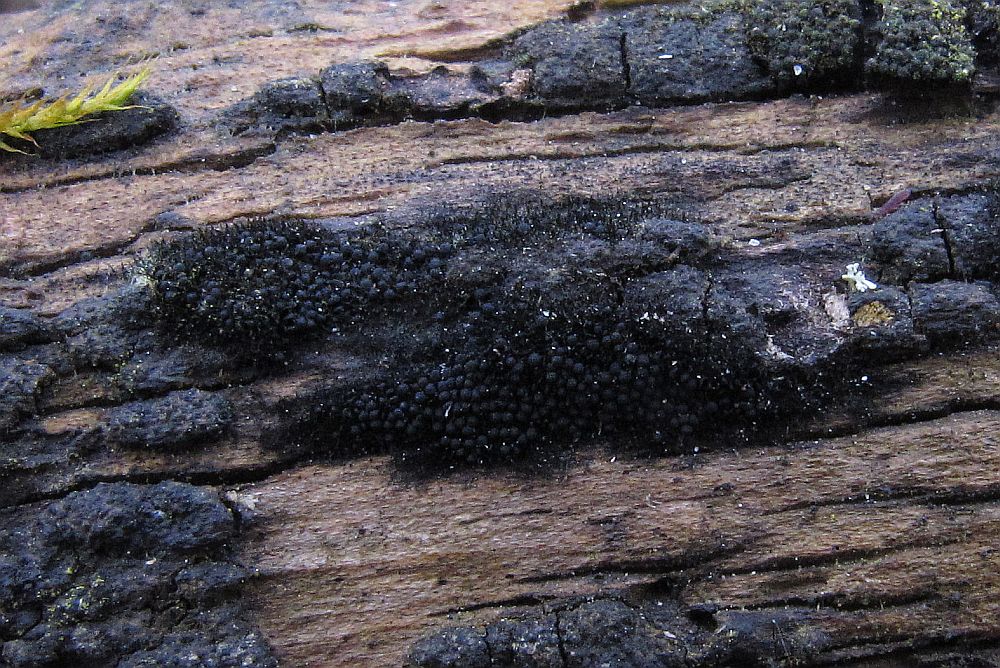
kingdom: Fungi
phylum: Ascomycota
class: Sordariomycetes
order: Coronophorales
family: Chaetosphaerellaceae
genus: Chaetosphaerella
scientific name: Chaetosphaerella phaeostroma
